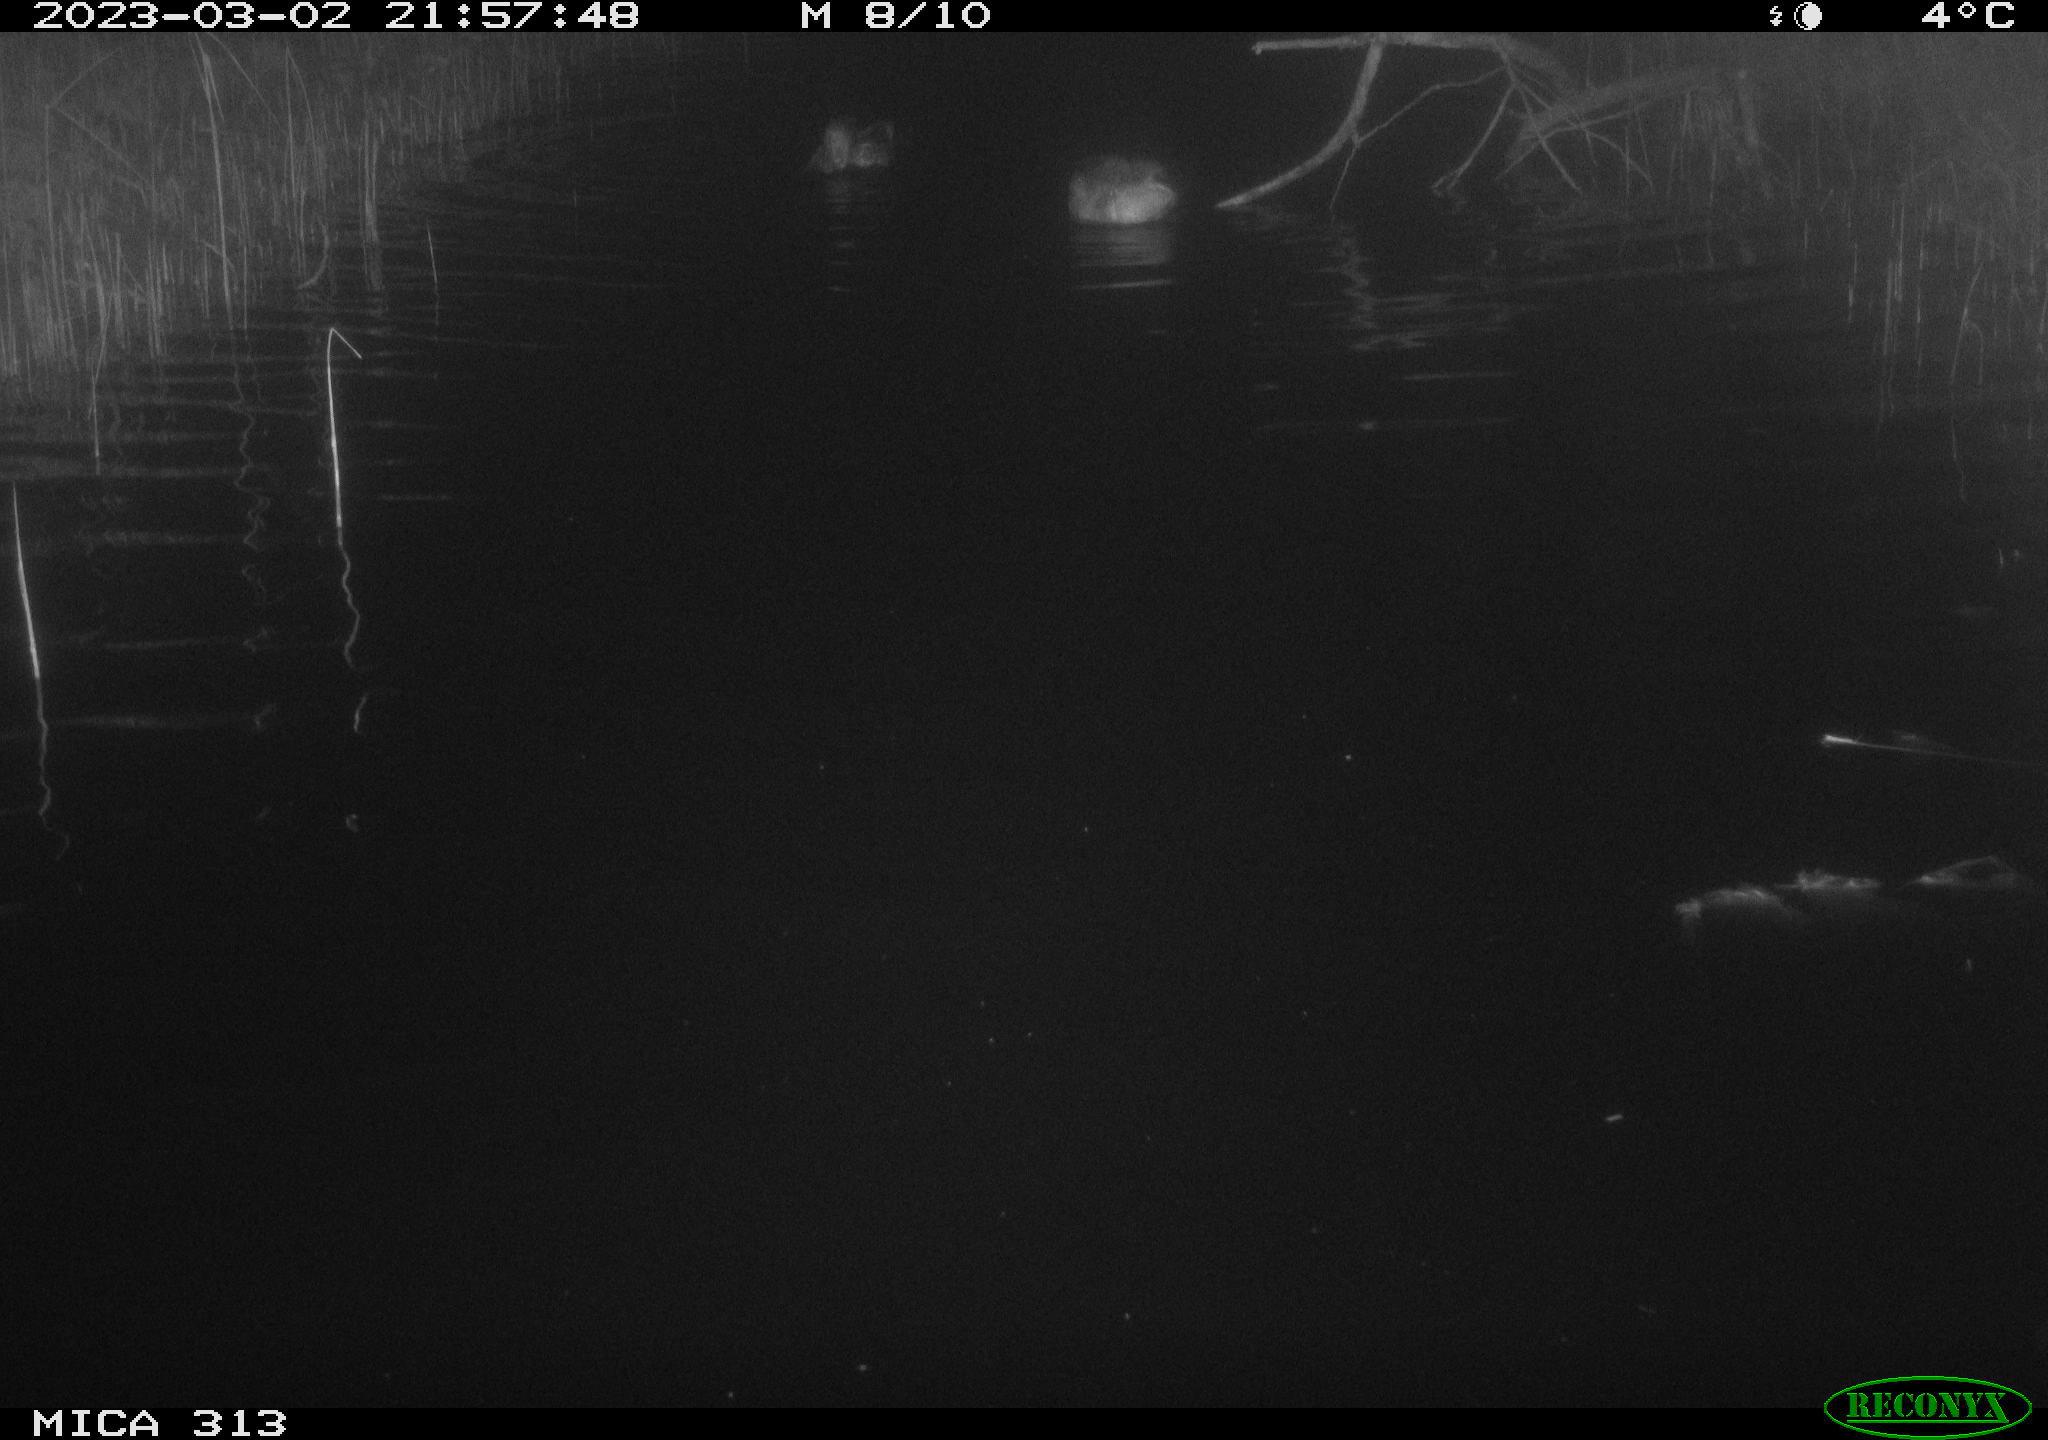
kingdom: Animalia
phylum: Chordata
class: Aves
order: Anseriformes
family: Anatidae
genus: Anas
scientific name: Anas
